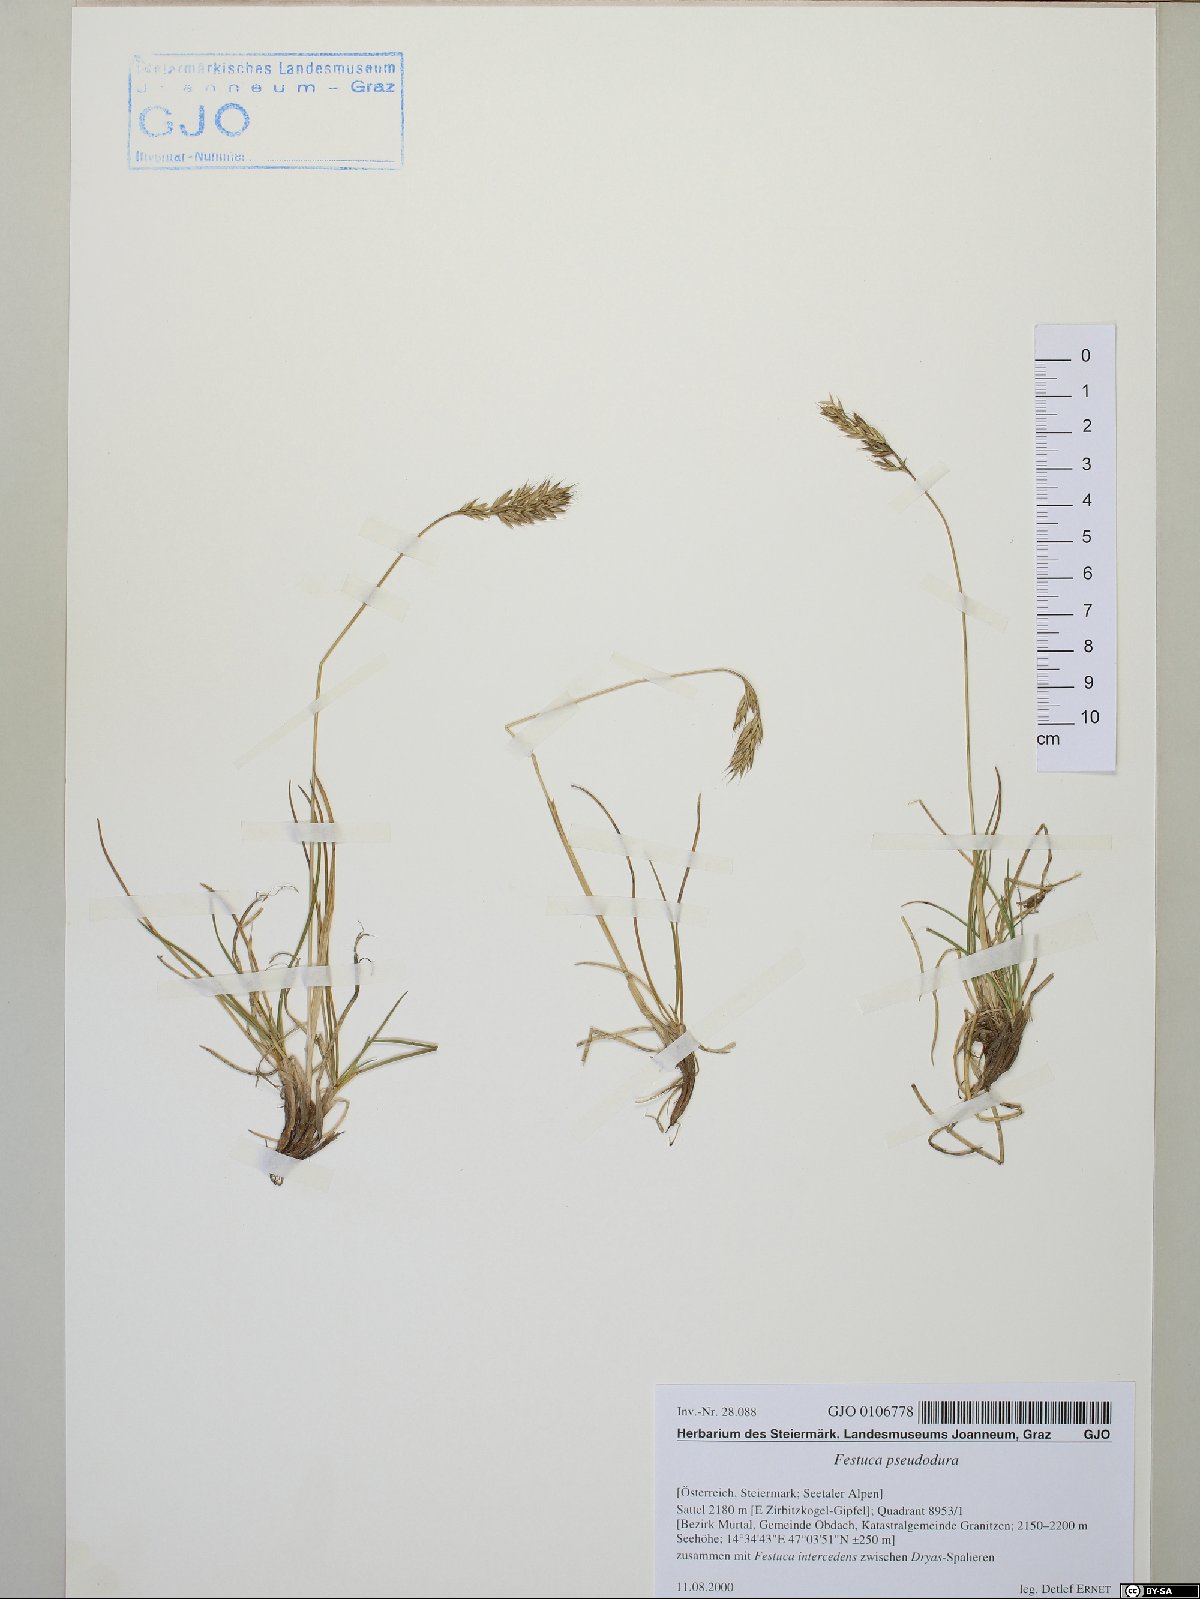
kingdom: Plantae
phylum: Tracheophyta
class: Liliopsida
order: Poales
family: Poaceae
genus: Festuca
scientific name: Festuca pseudodura
